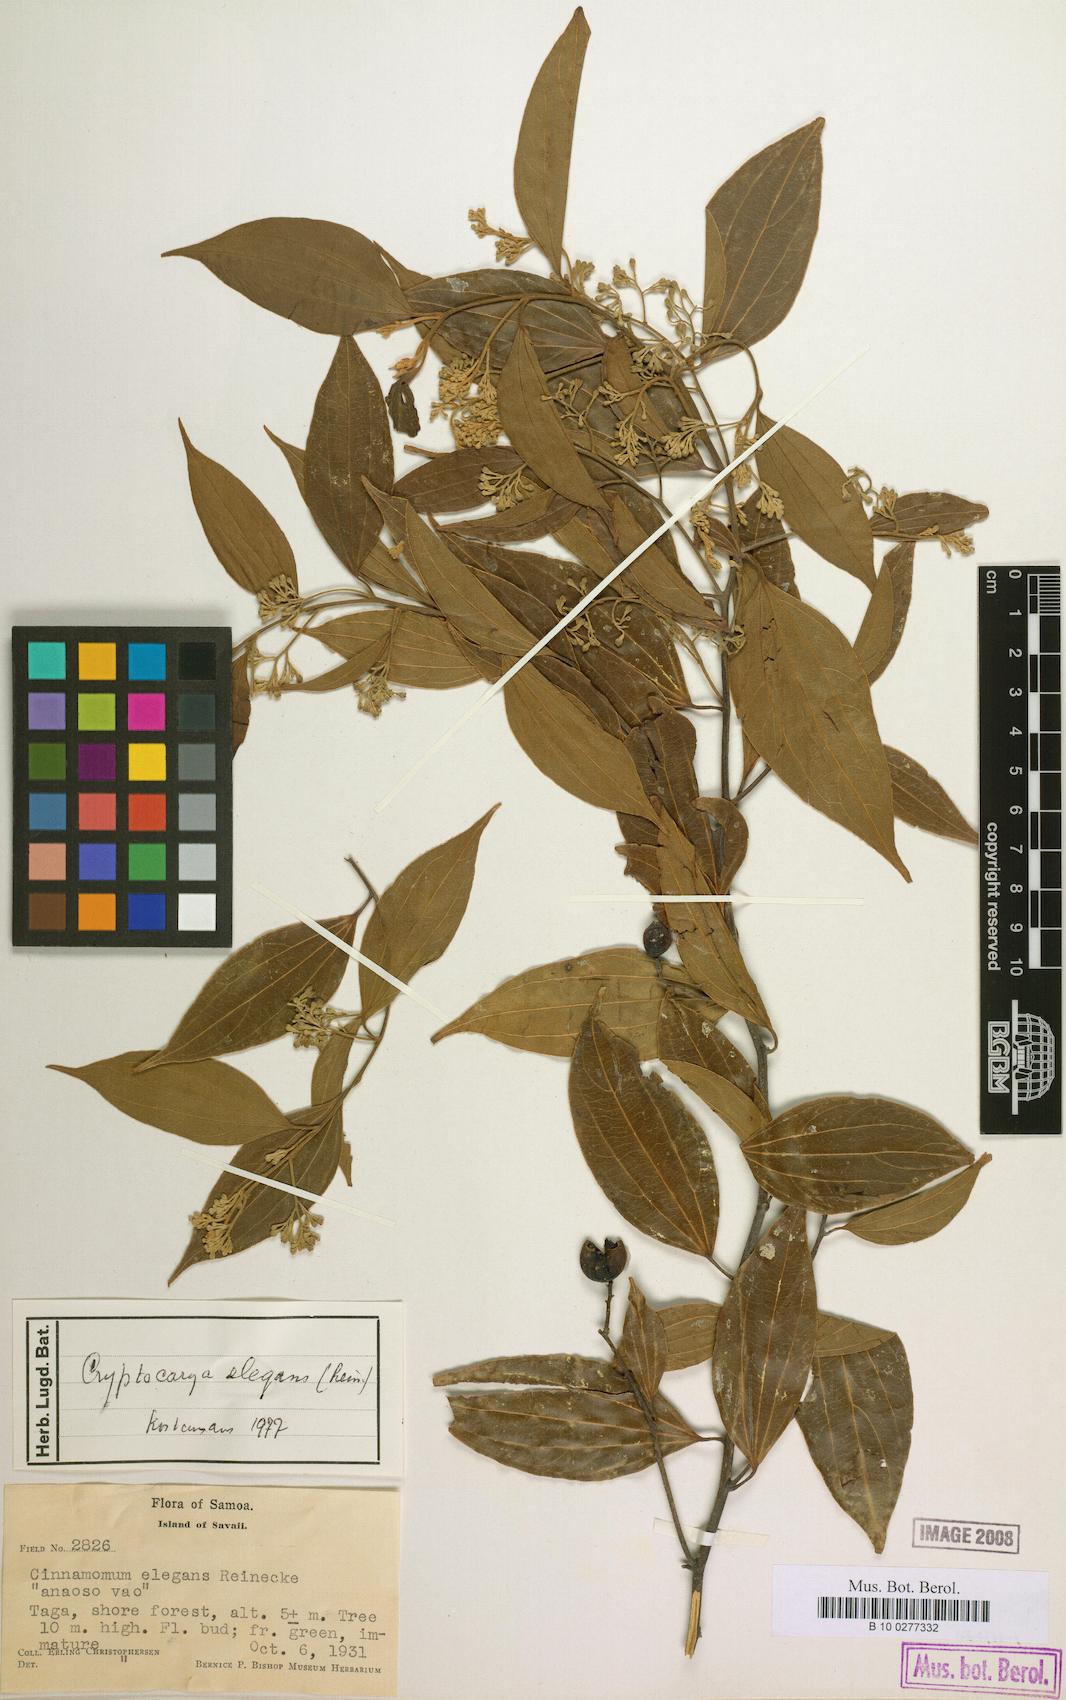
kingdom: Plantae
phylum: Tracheophyta
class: Magnoliopsida
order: Laurales
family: Lauraceae
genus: Cryptocarya
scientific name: Cryptocarya elegans
